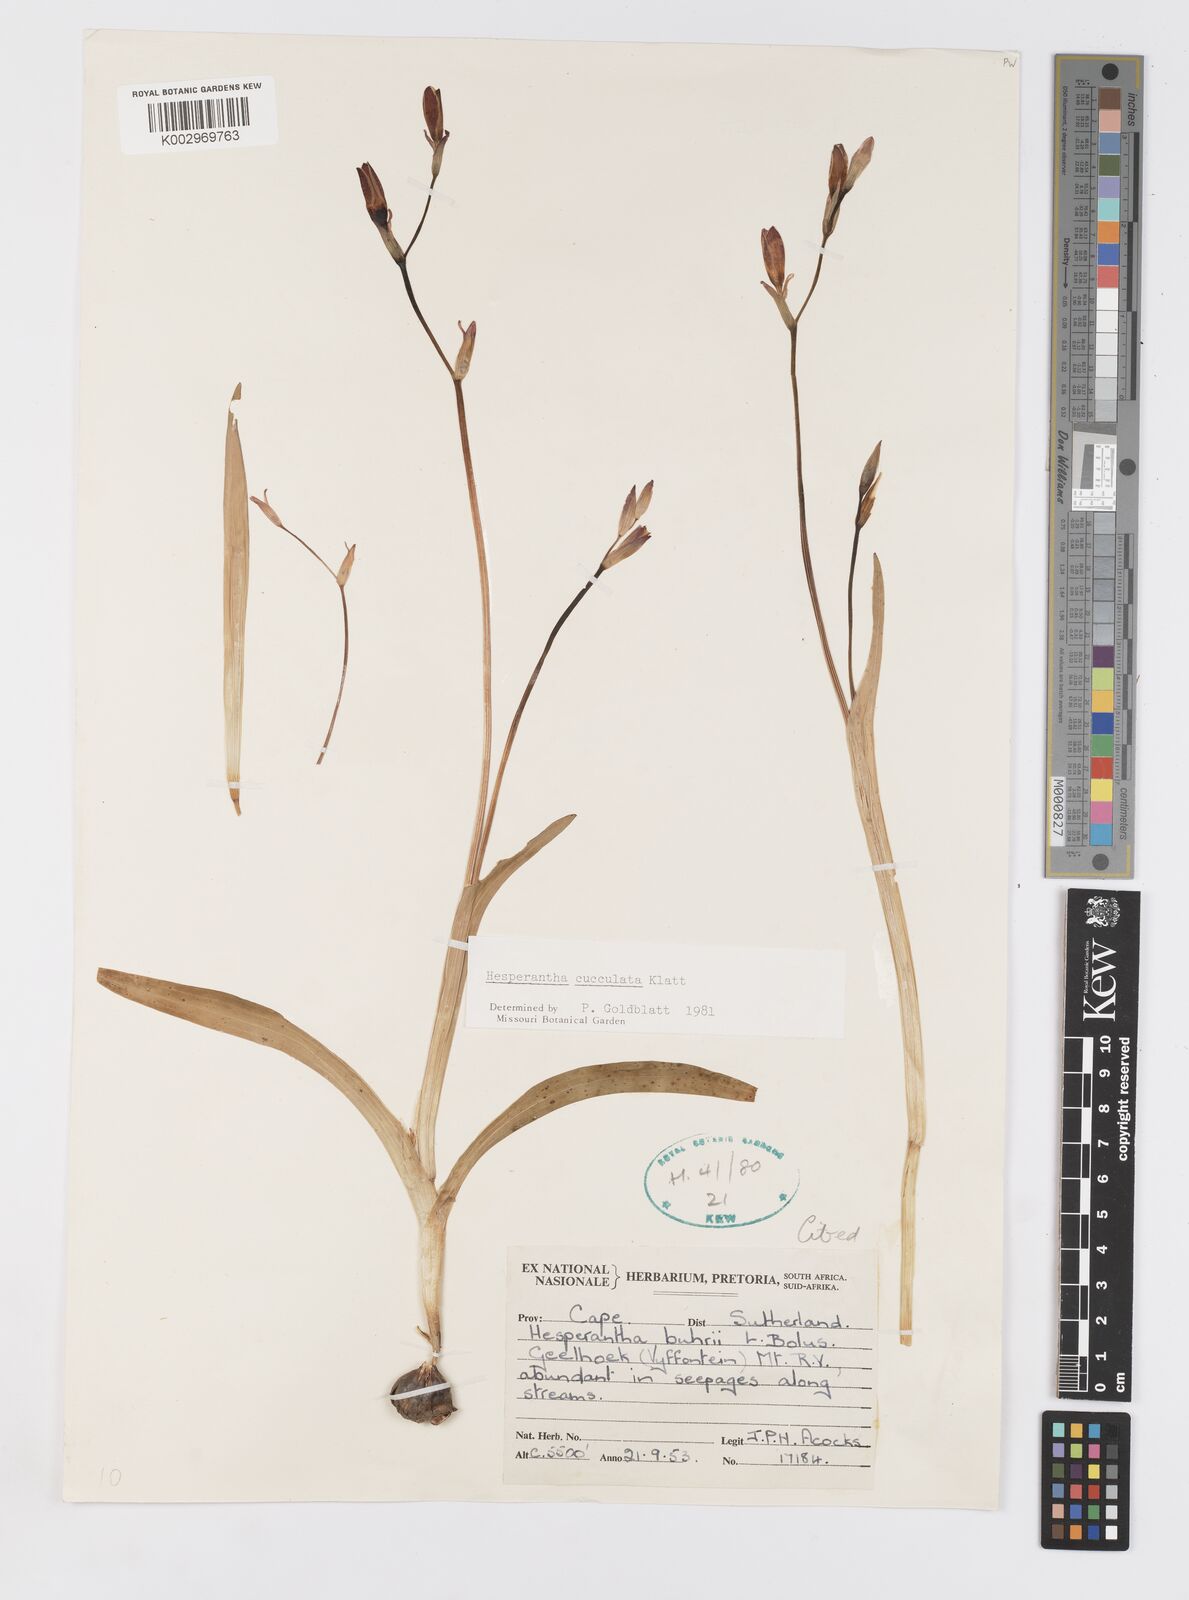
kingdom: Plantae
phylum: Tracheophyta
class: Liliopsida
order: Asparagales
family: Iridaceae
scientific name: Iridaceae
